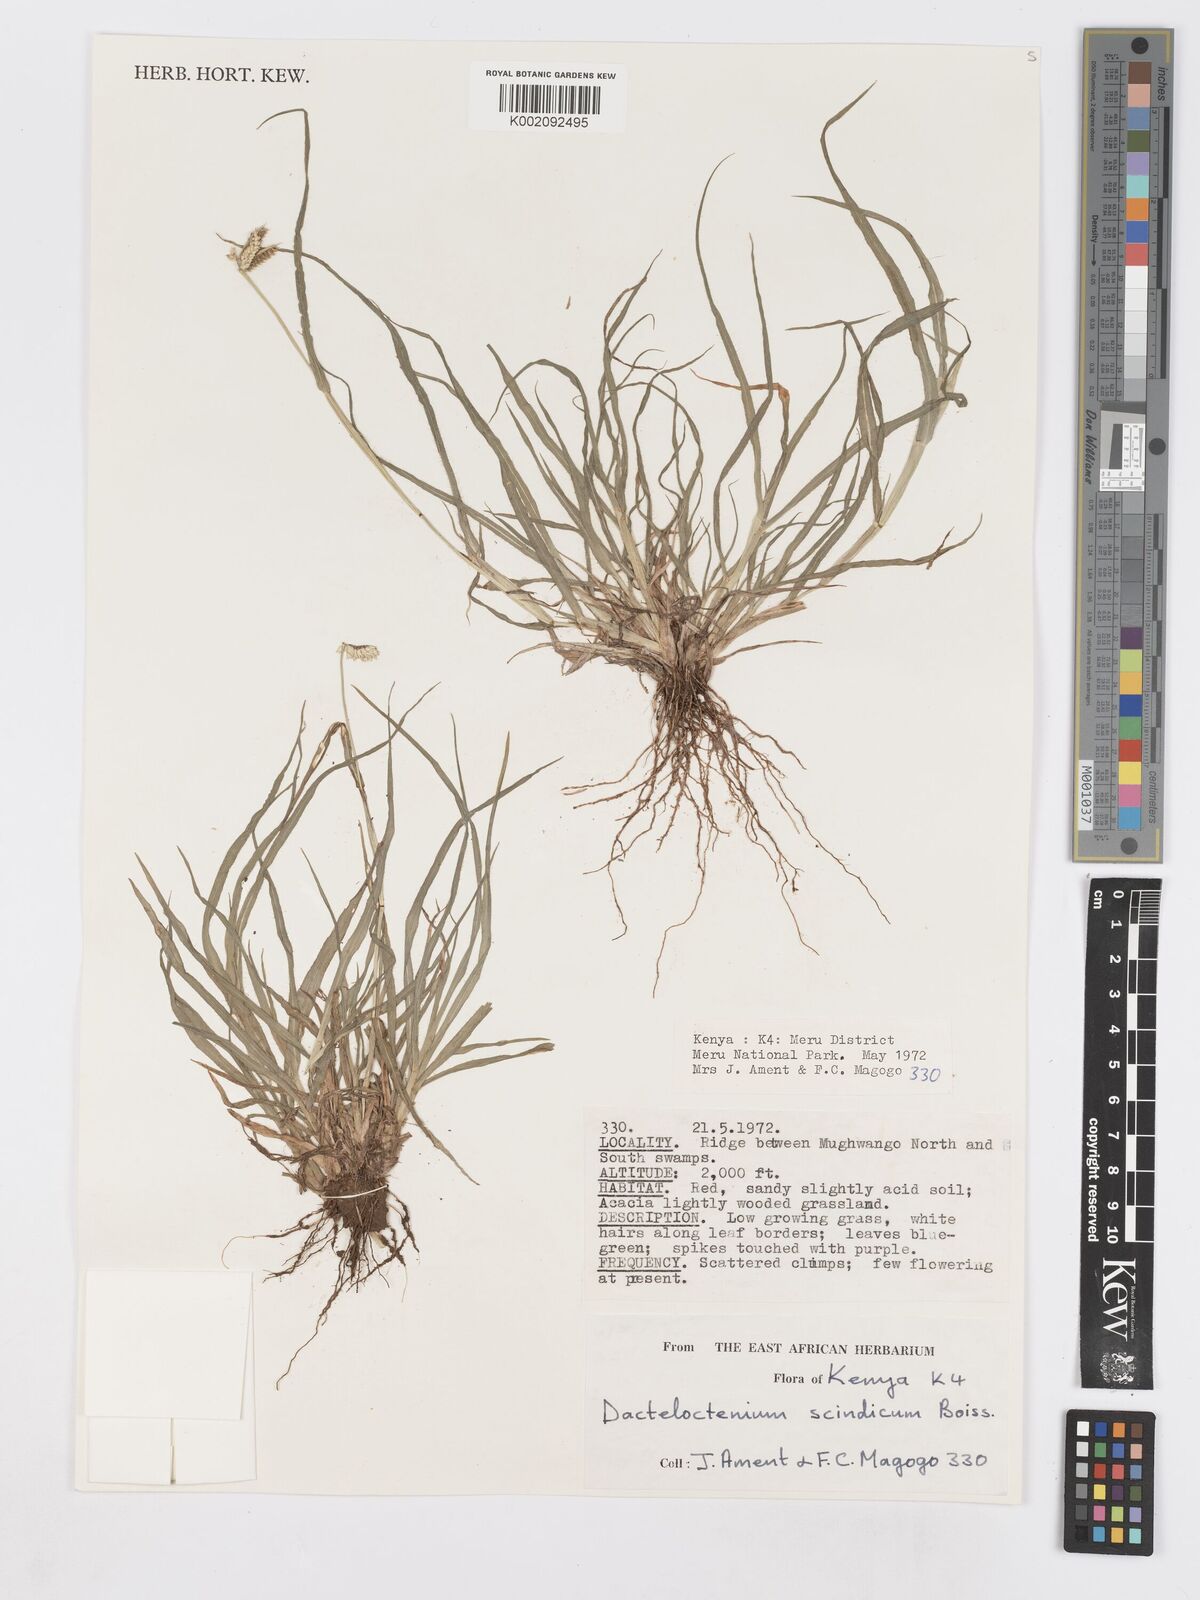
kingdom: Plantae
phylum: Tracheophyta
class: Liliopsida
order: Poales
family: Poaceae
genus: Dactyloctenium
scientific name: Dactyloctenium scindicum
